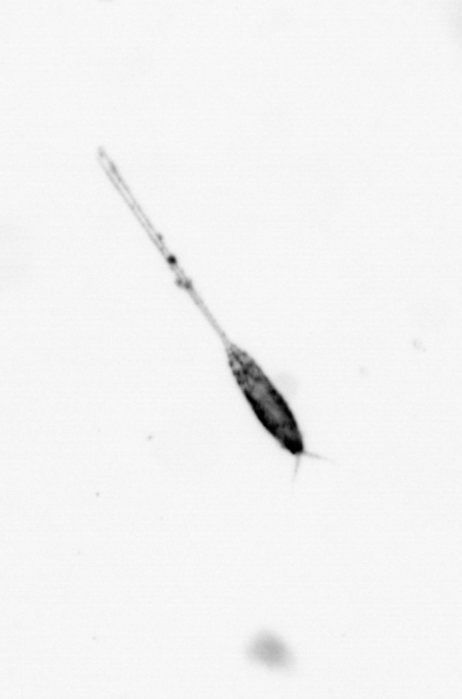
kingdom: Animalia
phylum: Arthropoda
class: Copepoda
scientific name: Copepoda
